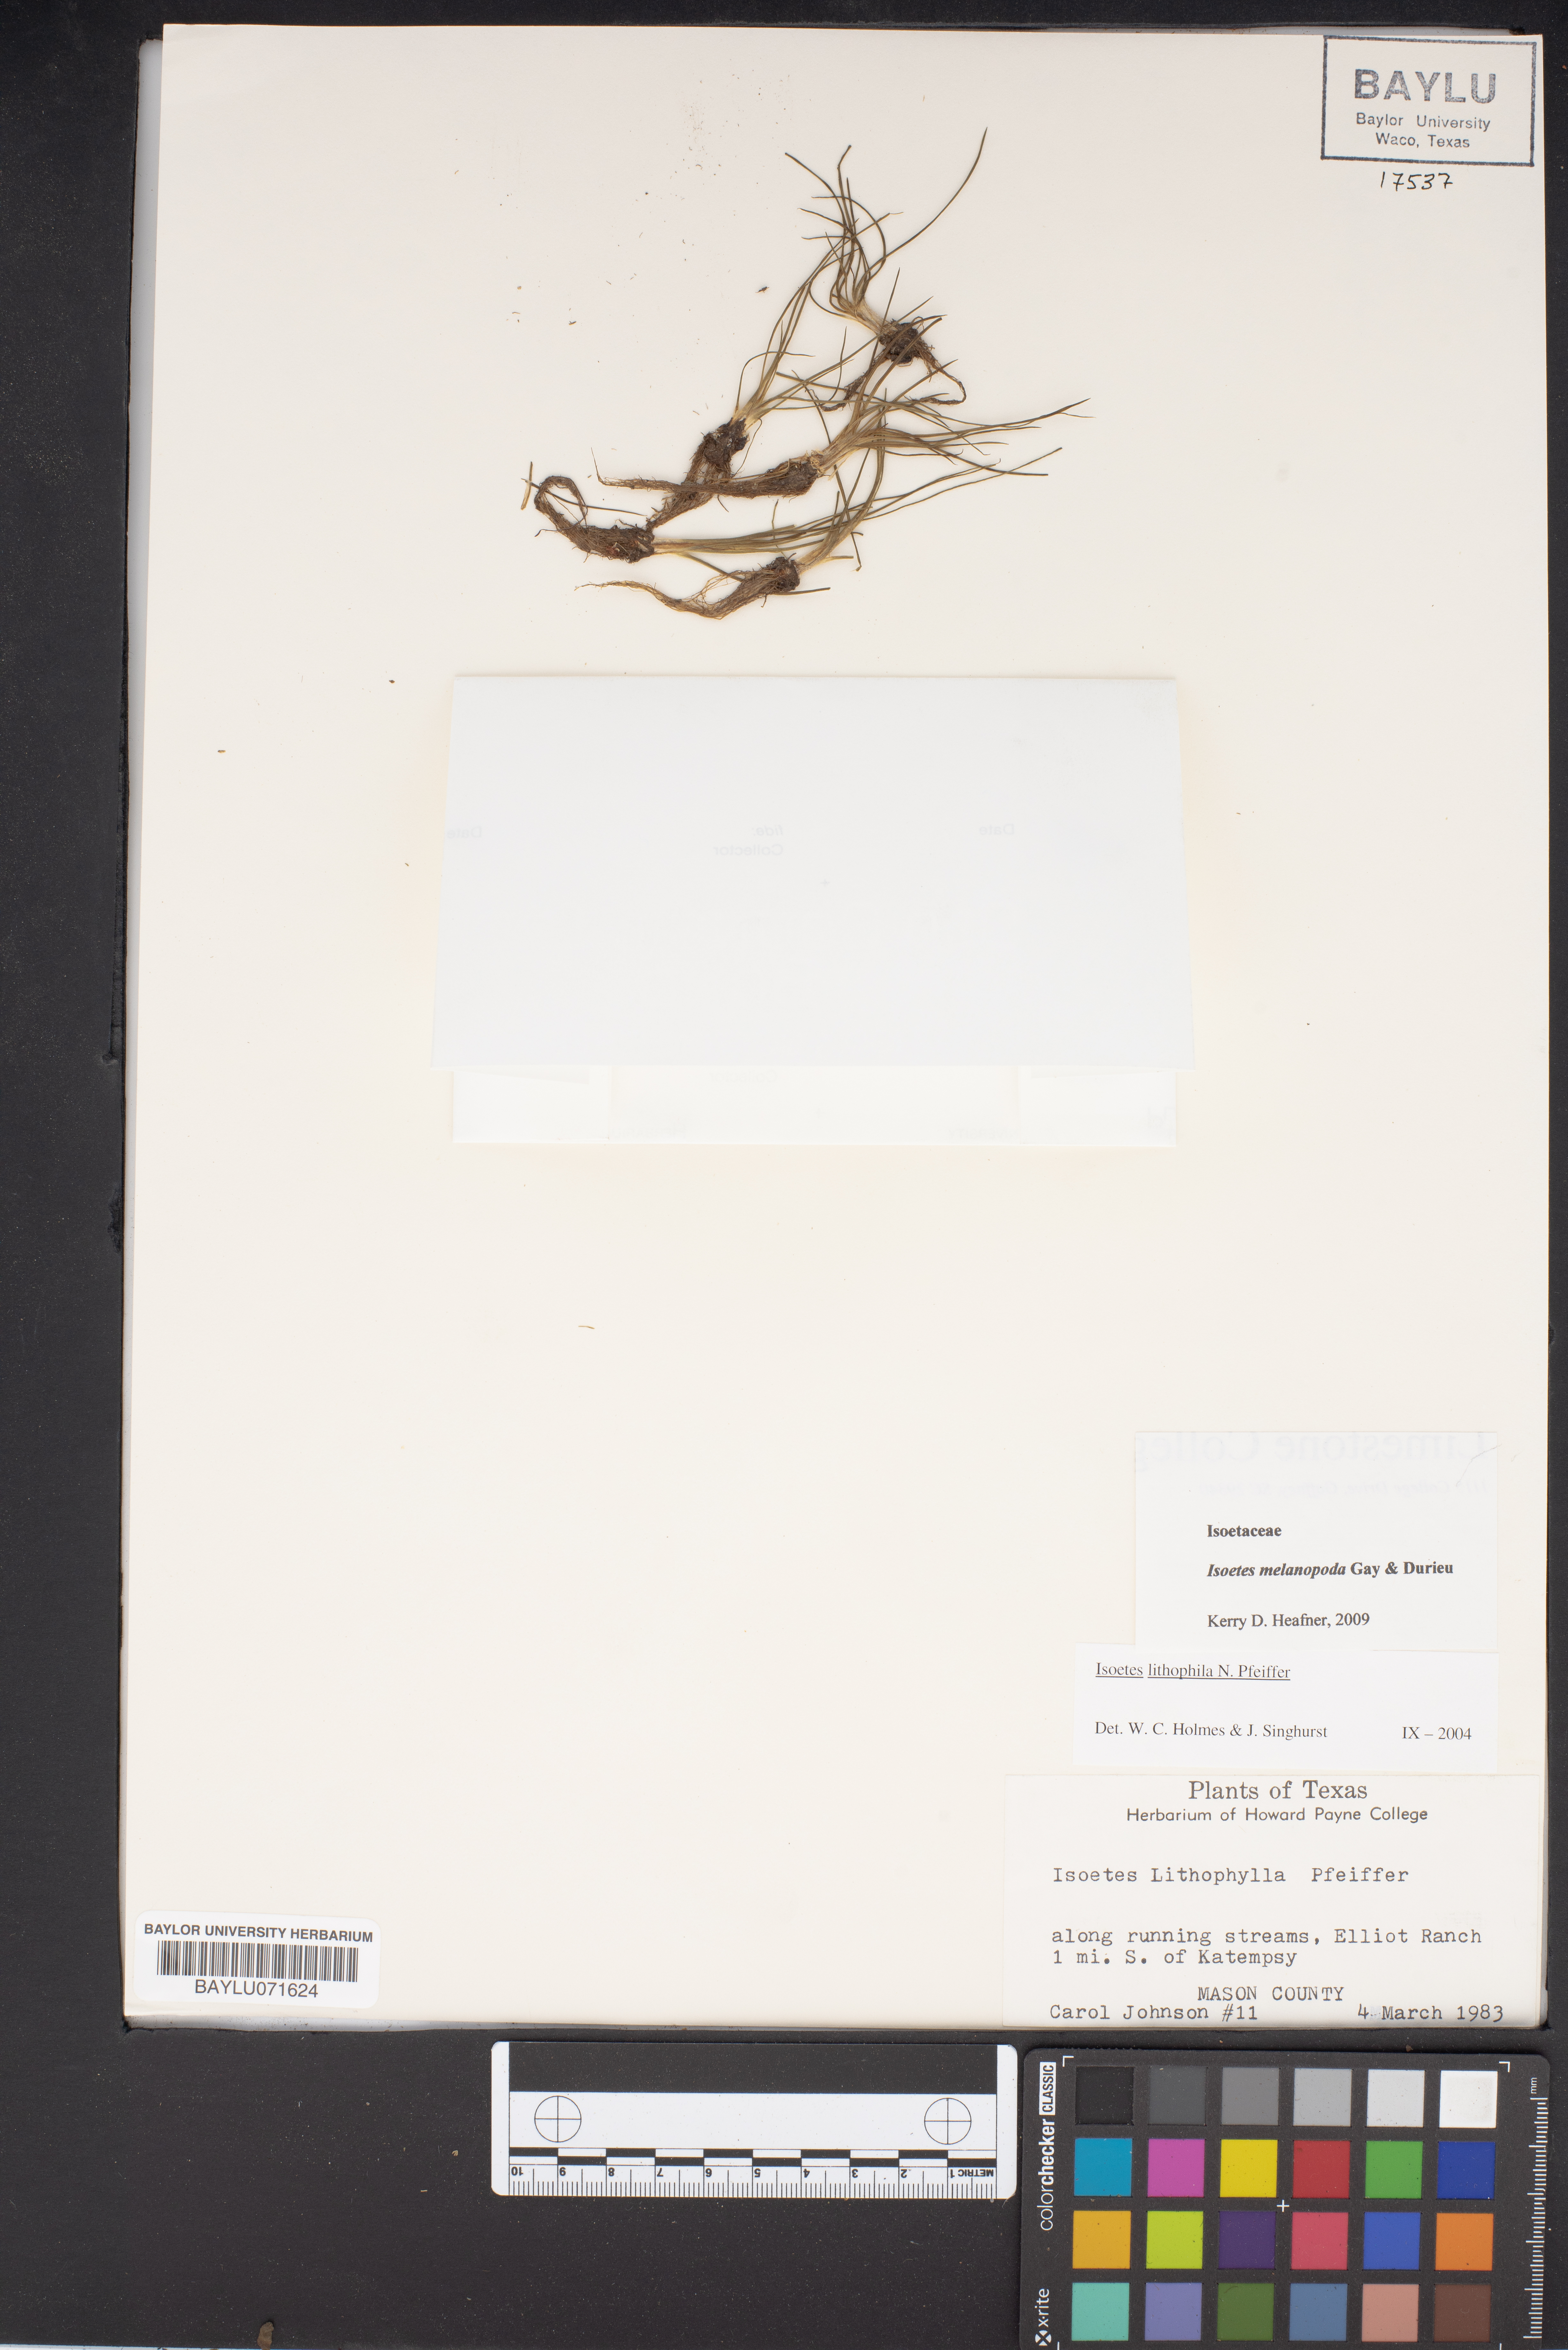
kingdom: Plantae
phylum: Tracheophyta
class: Lycopodiopsida
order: Isoetales
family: Isoetaceae
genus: Isoetes
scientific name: Isoetes lithophila
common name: Rock quillwort
